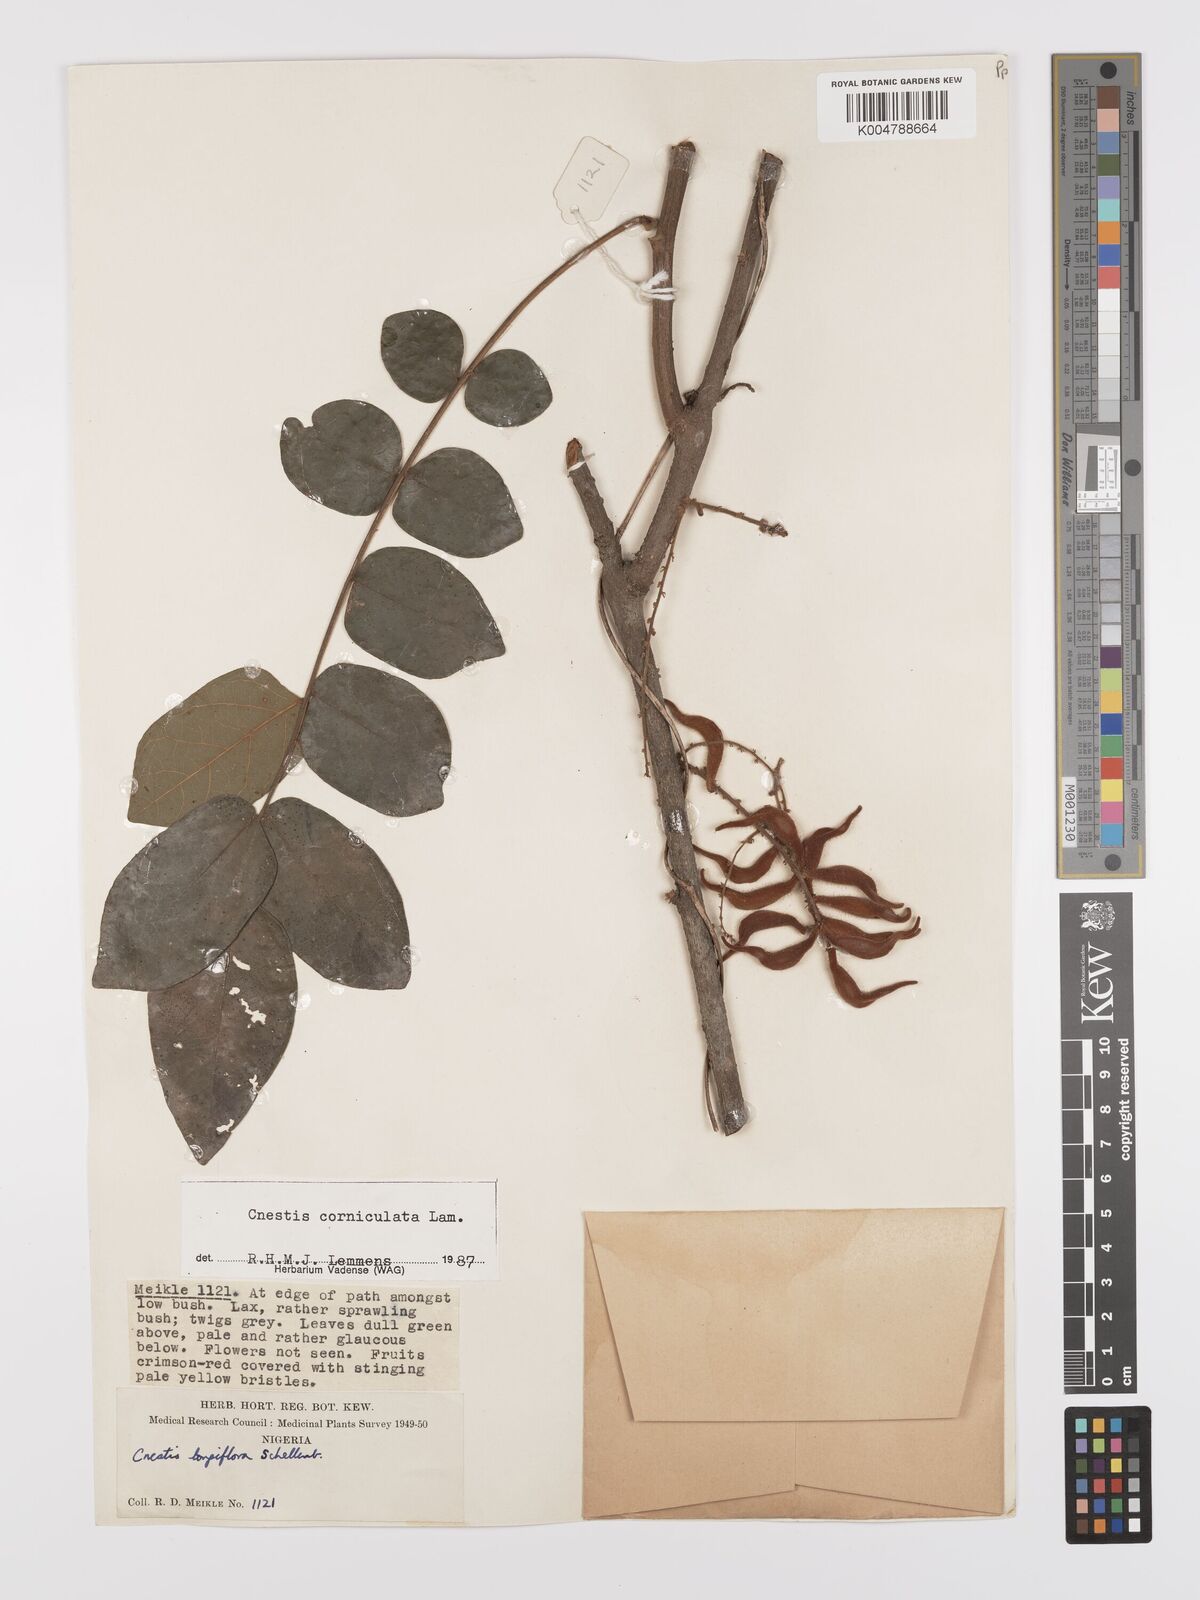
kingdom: Plantae
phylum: Tracheophyta
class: Magnoliopsida
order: Oxalidales
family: Connaraceae
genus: Cnestis
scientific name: Cnestis corniculata
